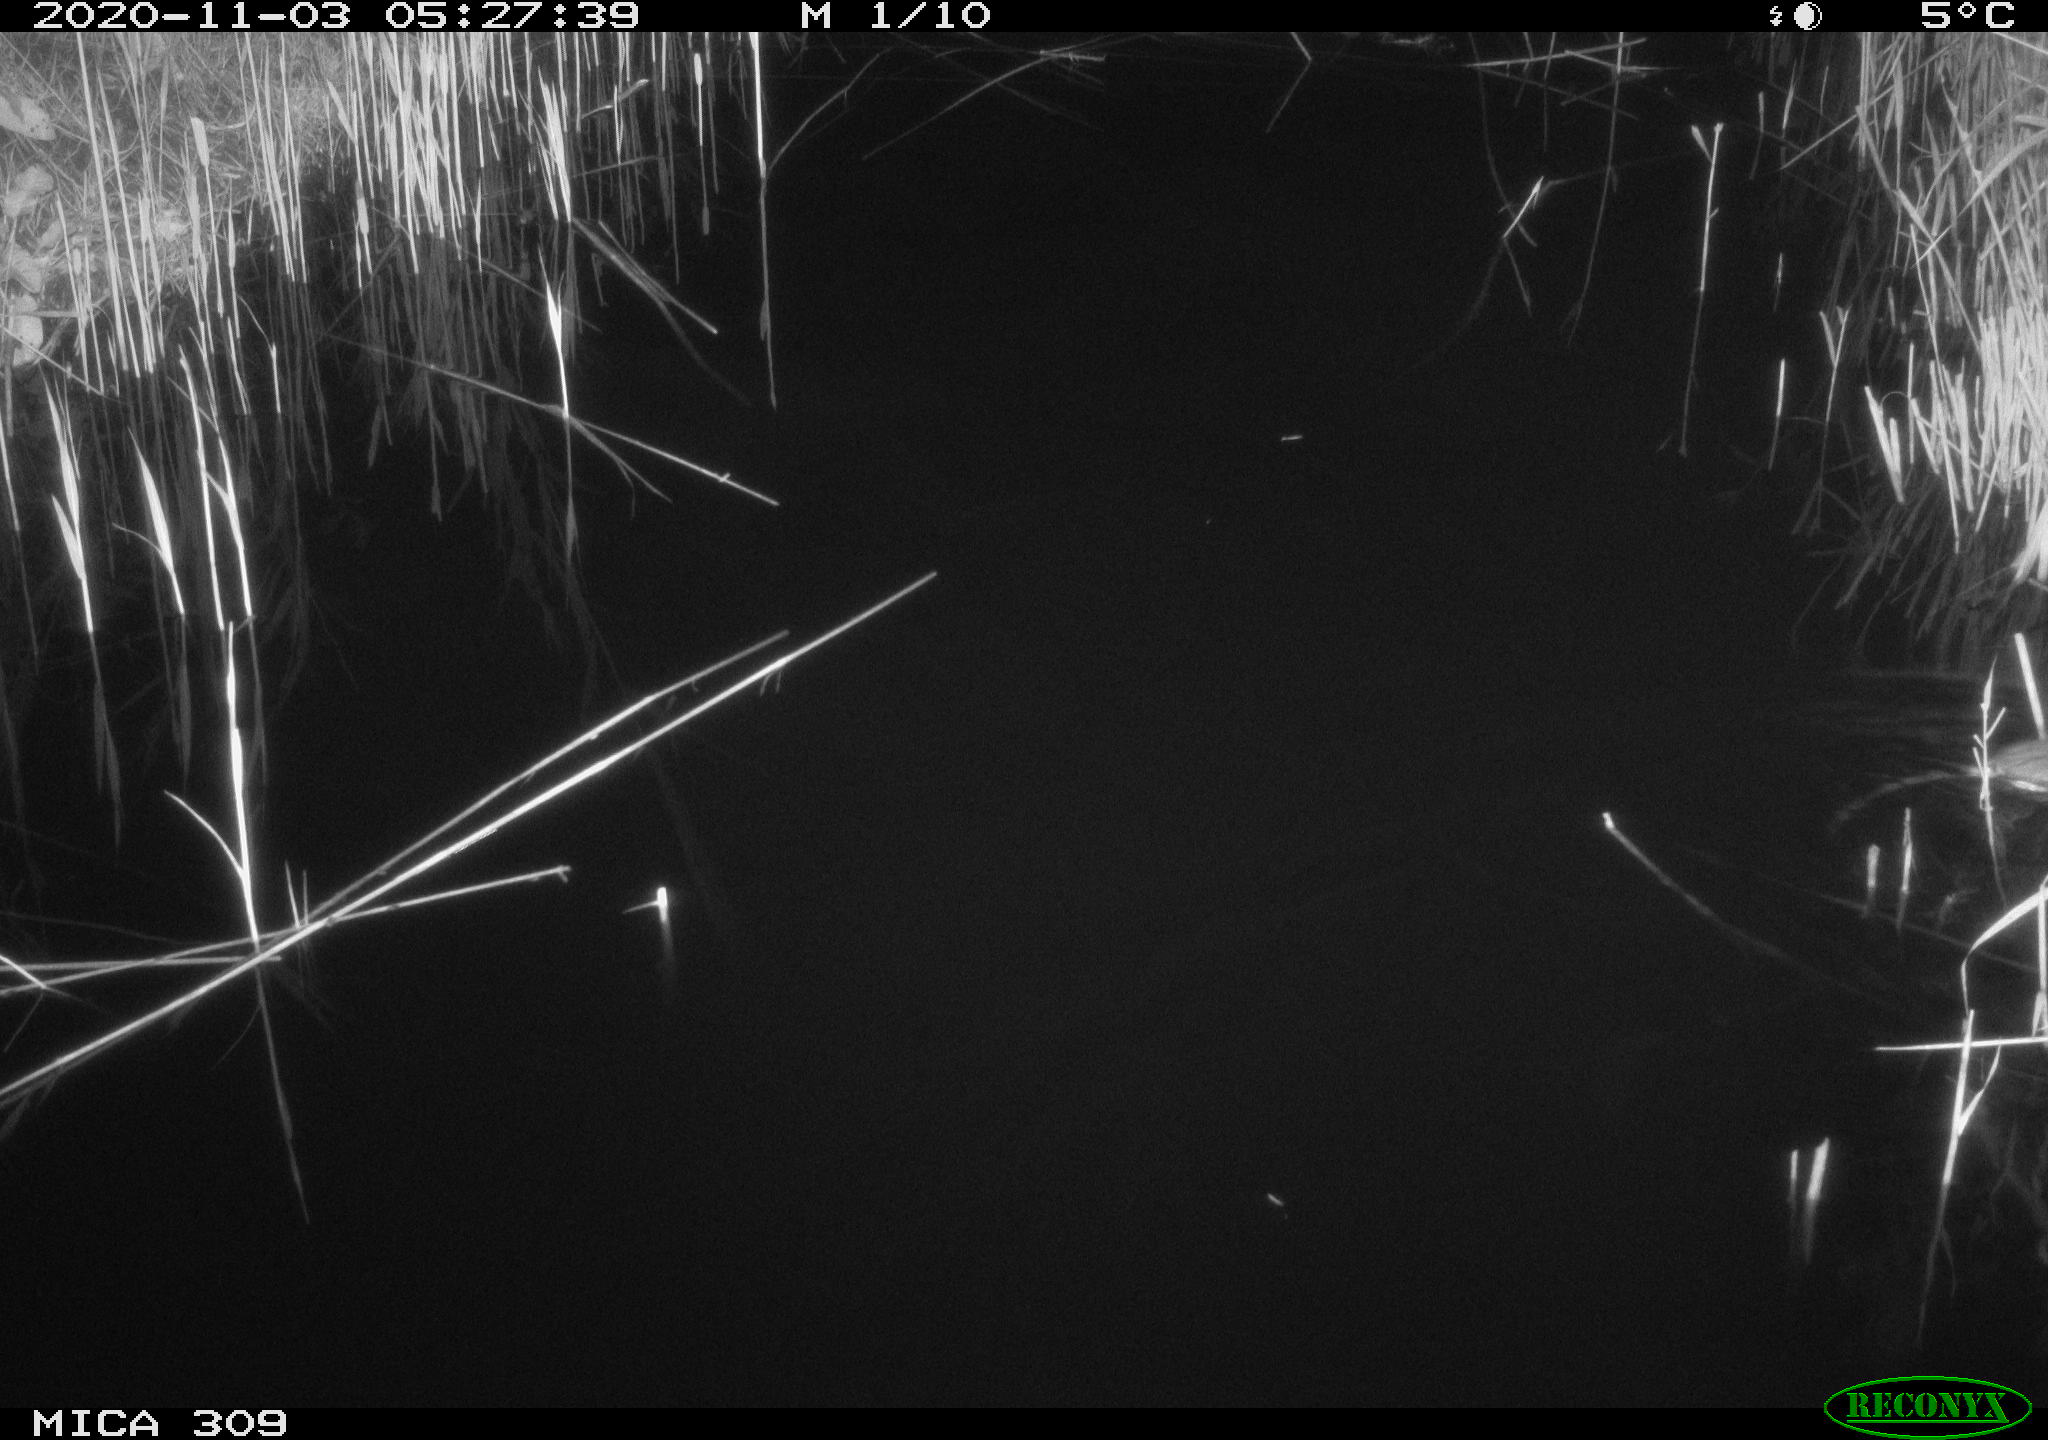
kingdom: Animalia
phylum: Chordata
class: Mammalia
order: Rodentia
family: Muridae
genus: Rattus
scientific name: Rattus norvegicus
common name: Brown rat
